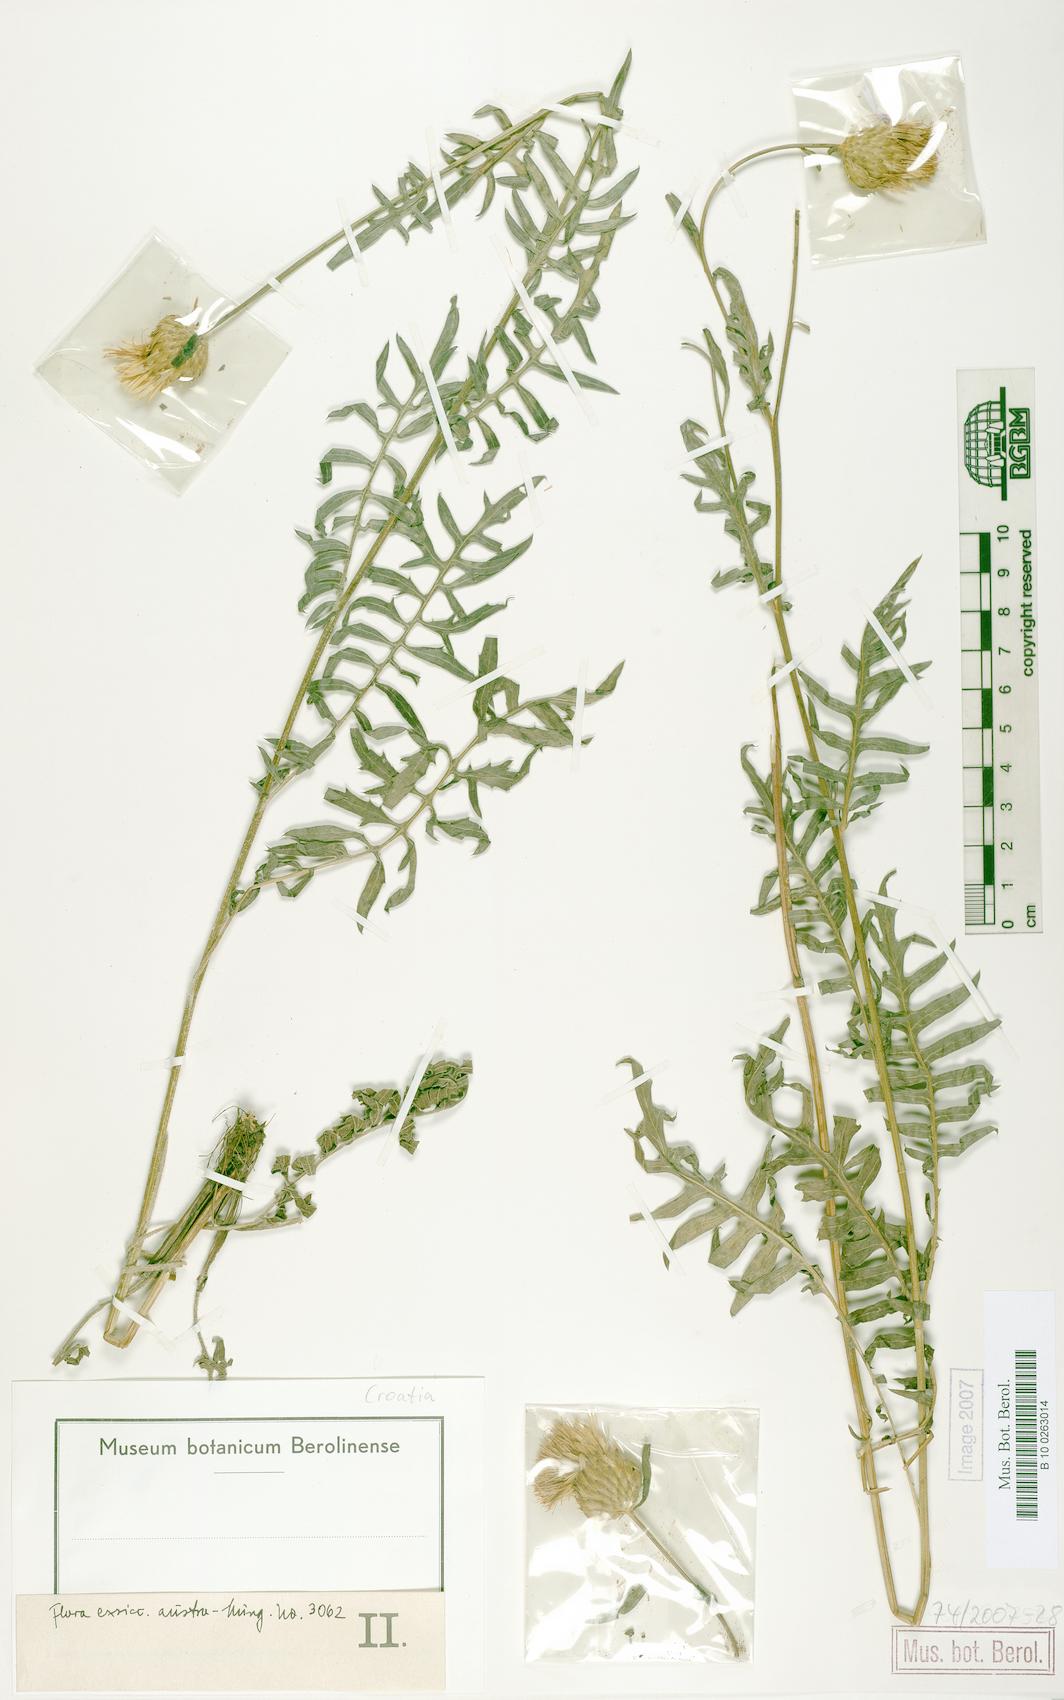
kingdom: Plantae
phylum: Tracheophyta
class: Magnoliopsida
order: Asterales
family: Asteraceae
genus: Klasea
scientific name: Klasea radiata
